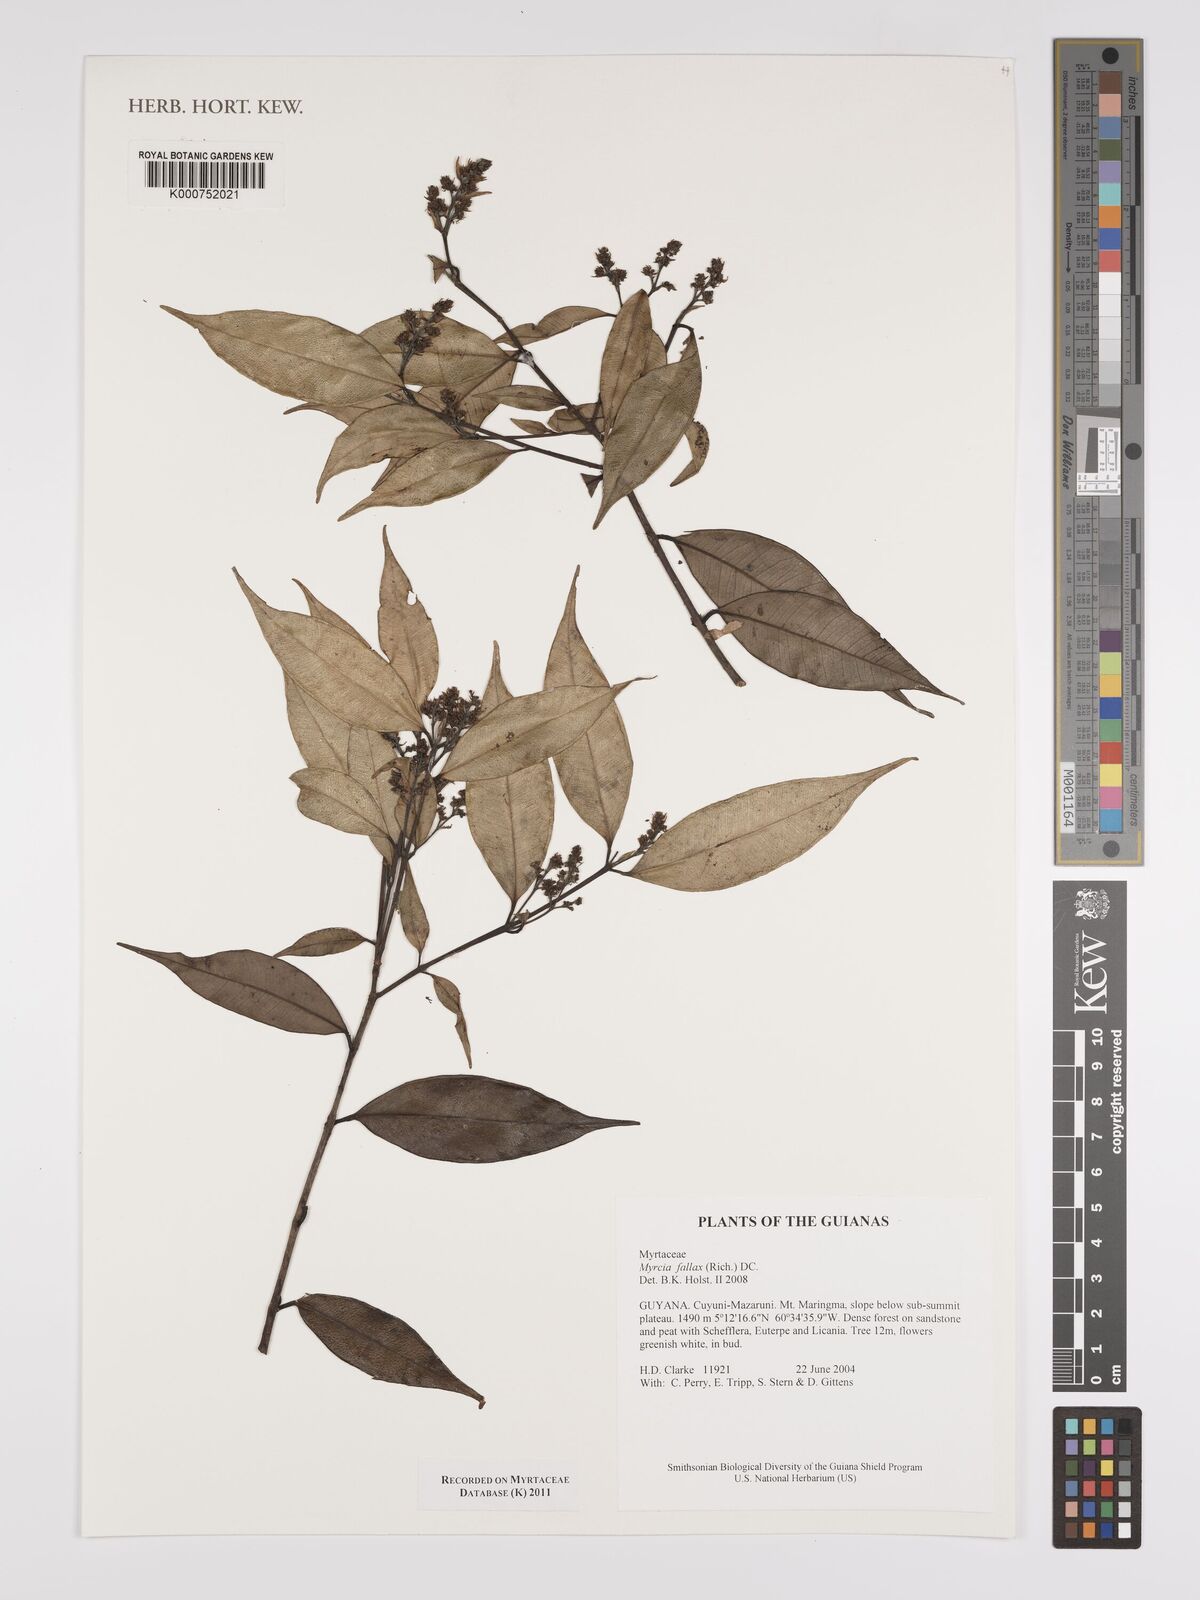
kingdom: Plantae
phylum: Tracheophyta
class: Magnoliopsida
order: Myrtales
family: Myrtaceae
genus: Myrcia
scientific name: Myrcia splendens
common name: Surinam cherry
